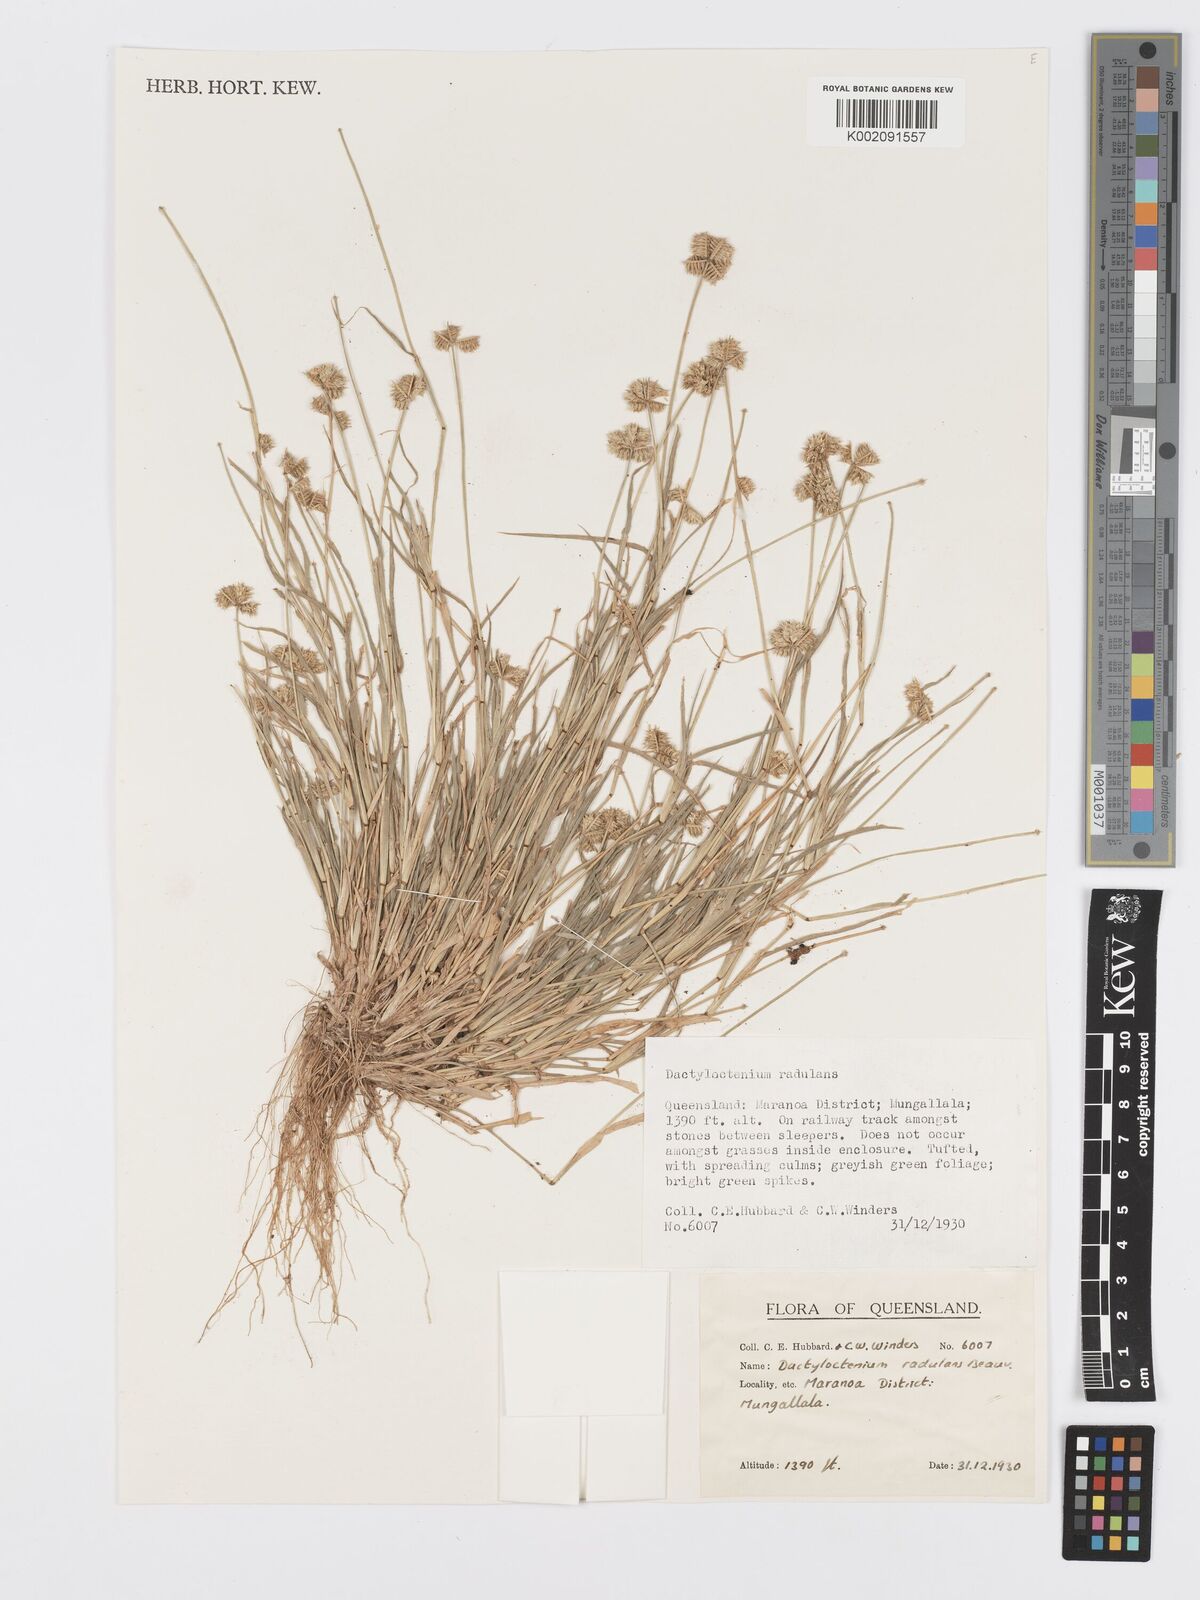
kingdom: Plantae
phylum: Tracheophyta
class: Liliopsida
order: Poales
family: Poaceae
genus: Dactyloctenium
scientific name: Dactyloctenium radulans
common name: Button-grass
